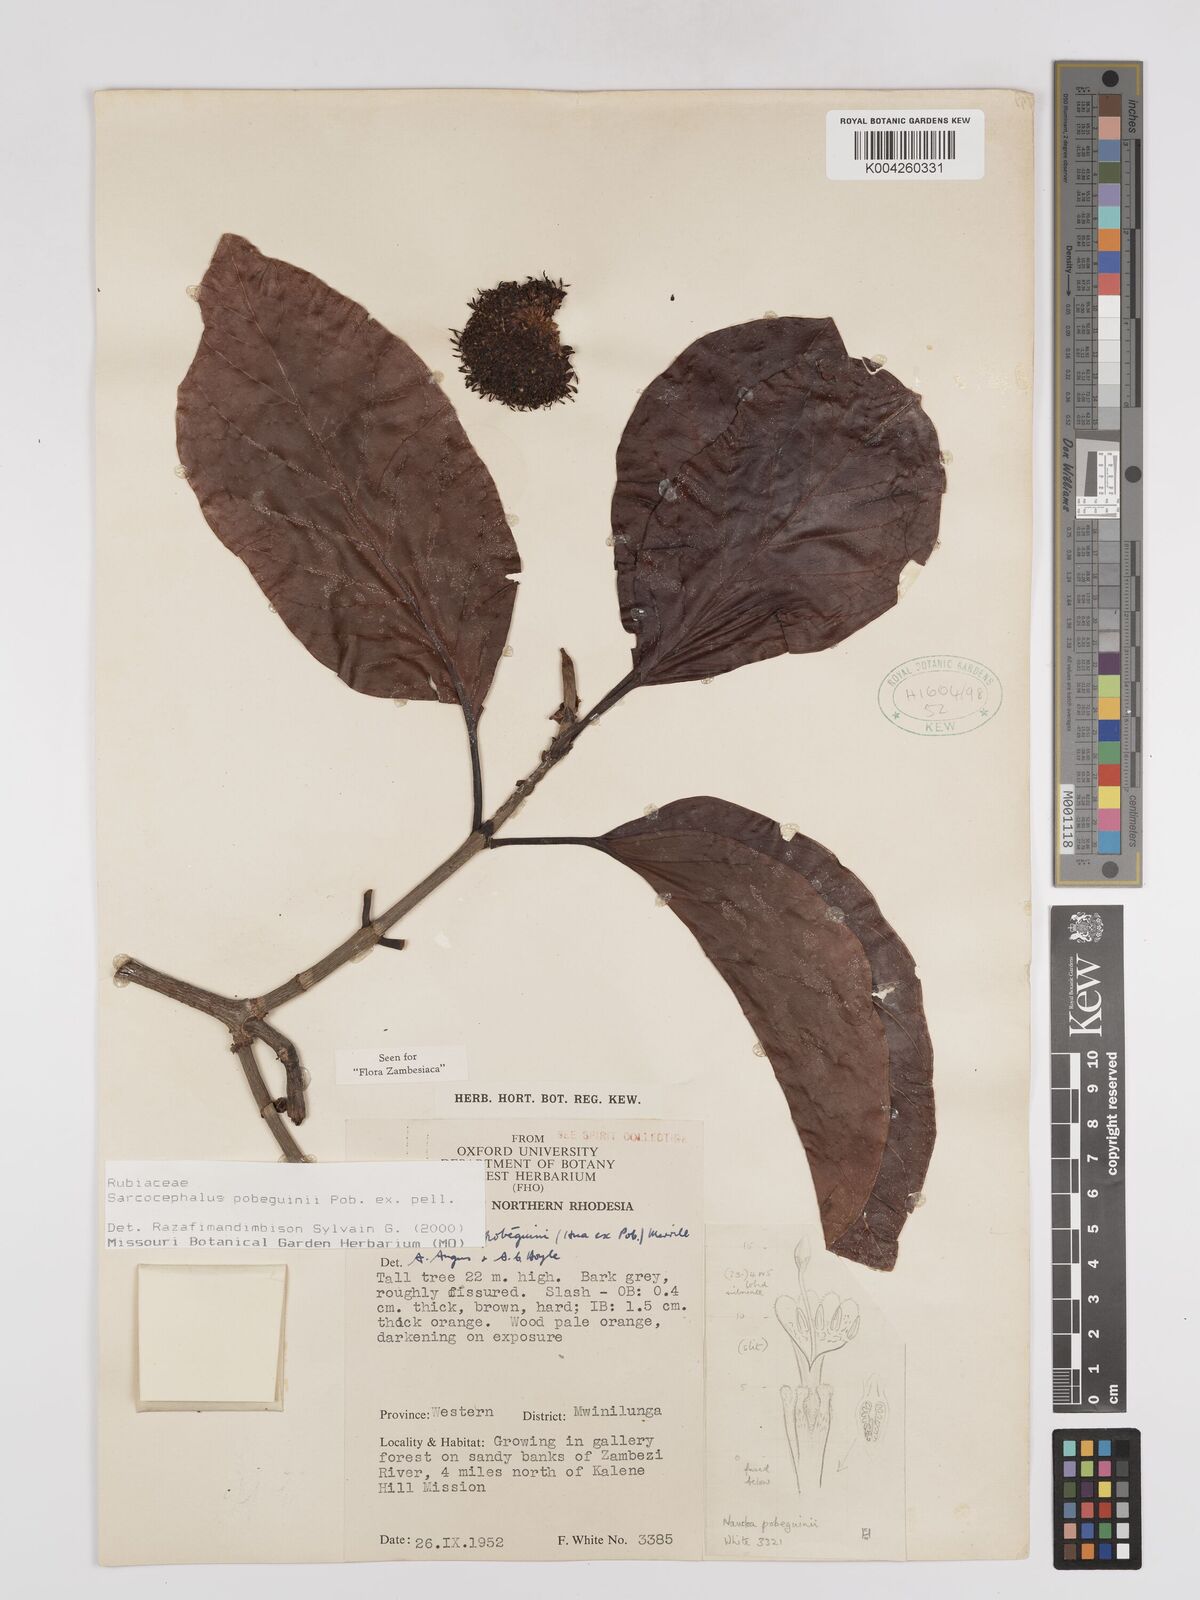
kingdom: Plantae
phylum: Tracheophyta
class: Magnoliopsida
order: Gentianales
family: Rubiaceae
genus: Nauclea
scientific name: Nauclea pobeguinii
